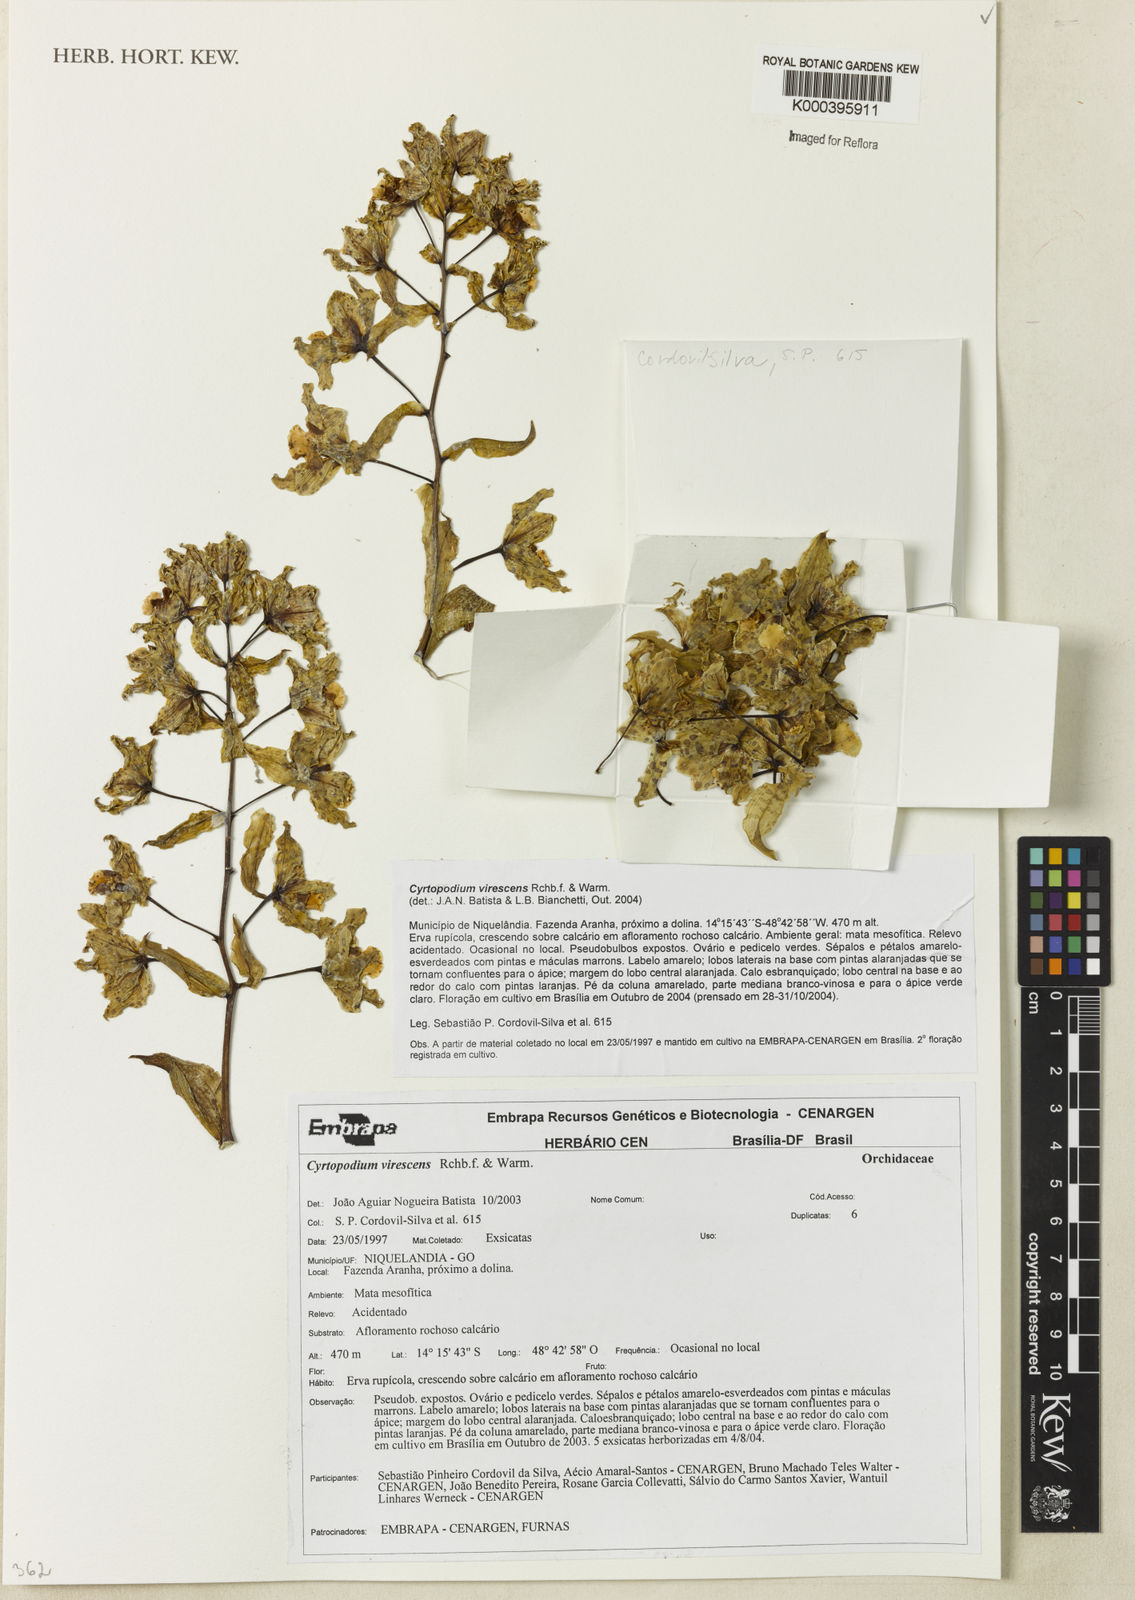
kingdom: Plantae
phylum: Tracheophyta
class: Liliopsida
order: Asparagales
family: Orchidaceae
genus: Cyrtopodium
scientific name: Cyrtopodium virescens
